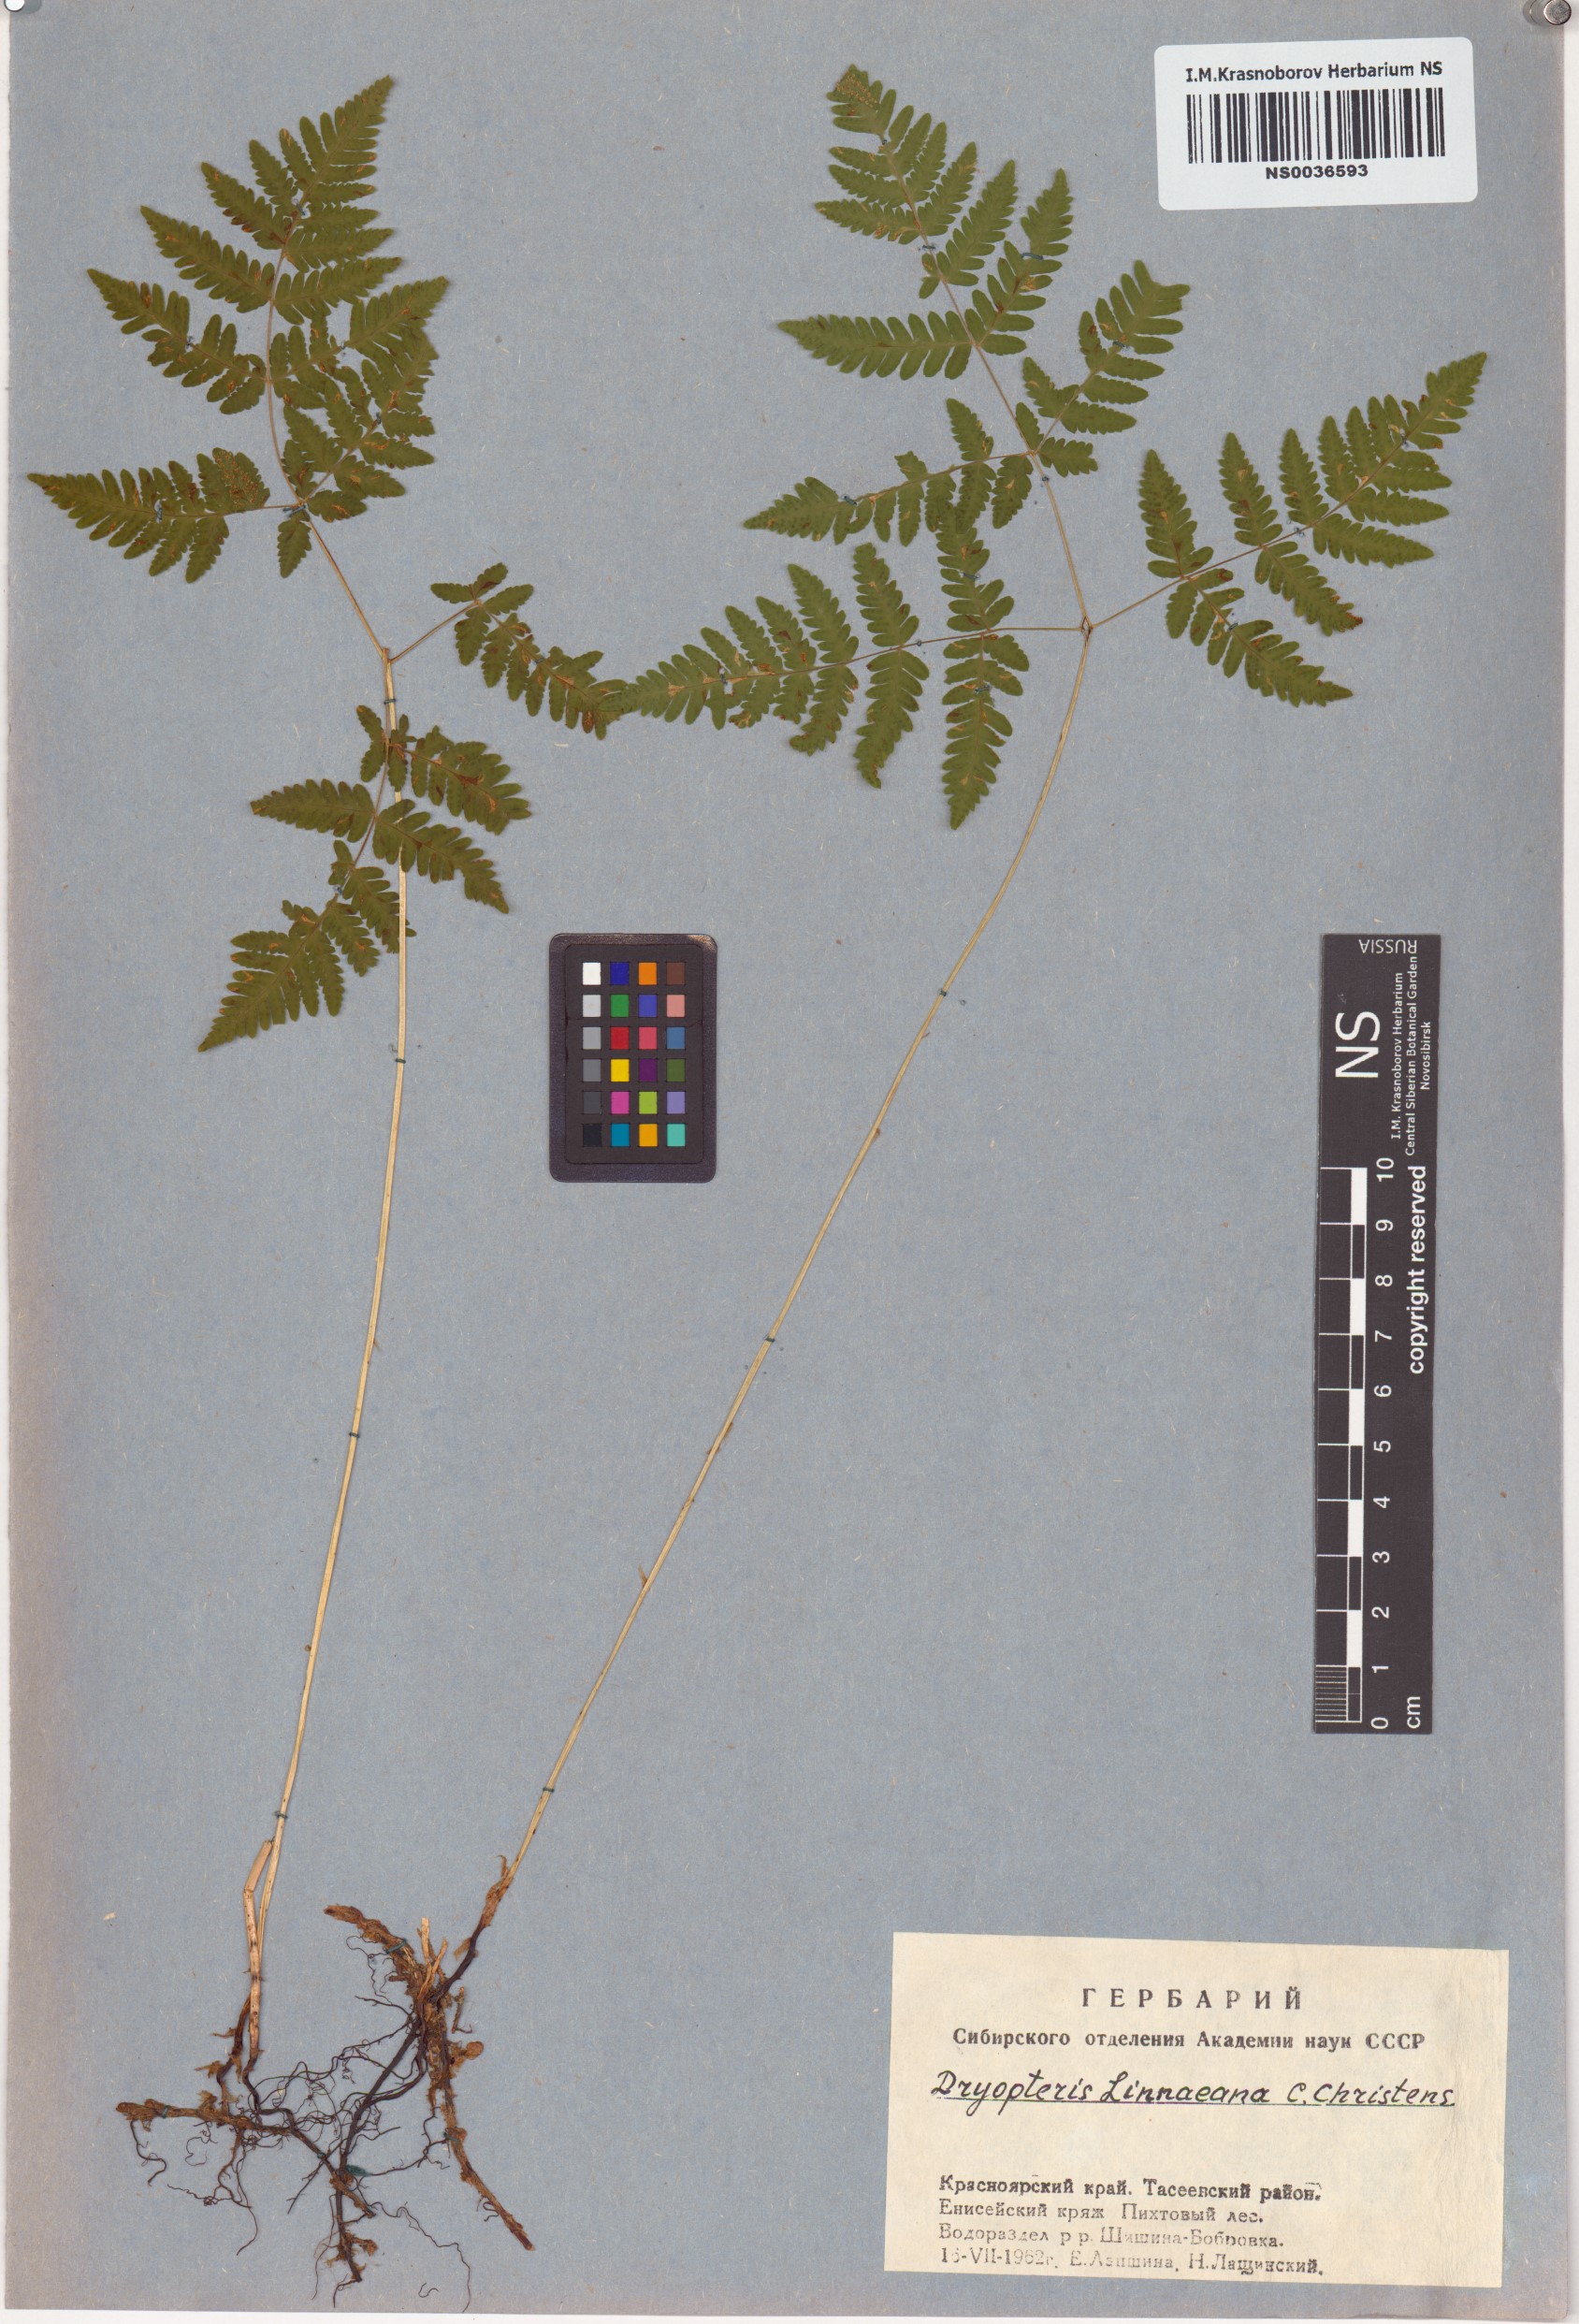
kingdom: Plantae
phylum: Tracheophyta
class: Polypodiopsida
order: Polypodiales
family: Cystopteridaceae
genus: Gymnocarpium
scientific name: Gymnocarpium dryopteris
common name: Oak fern
